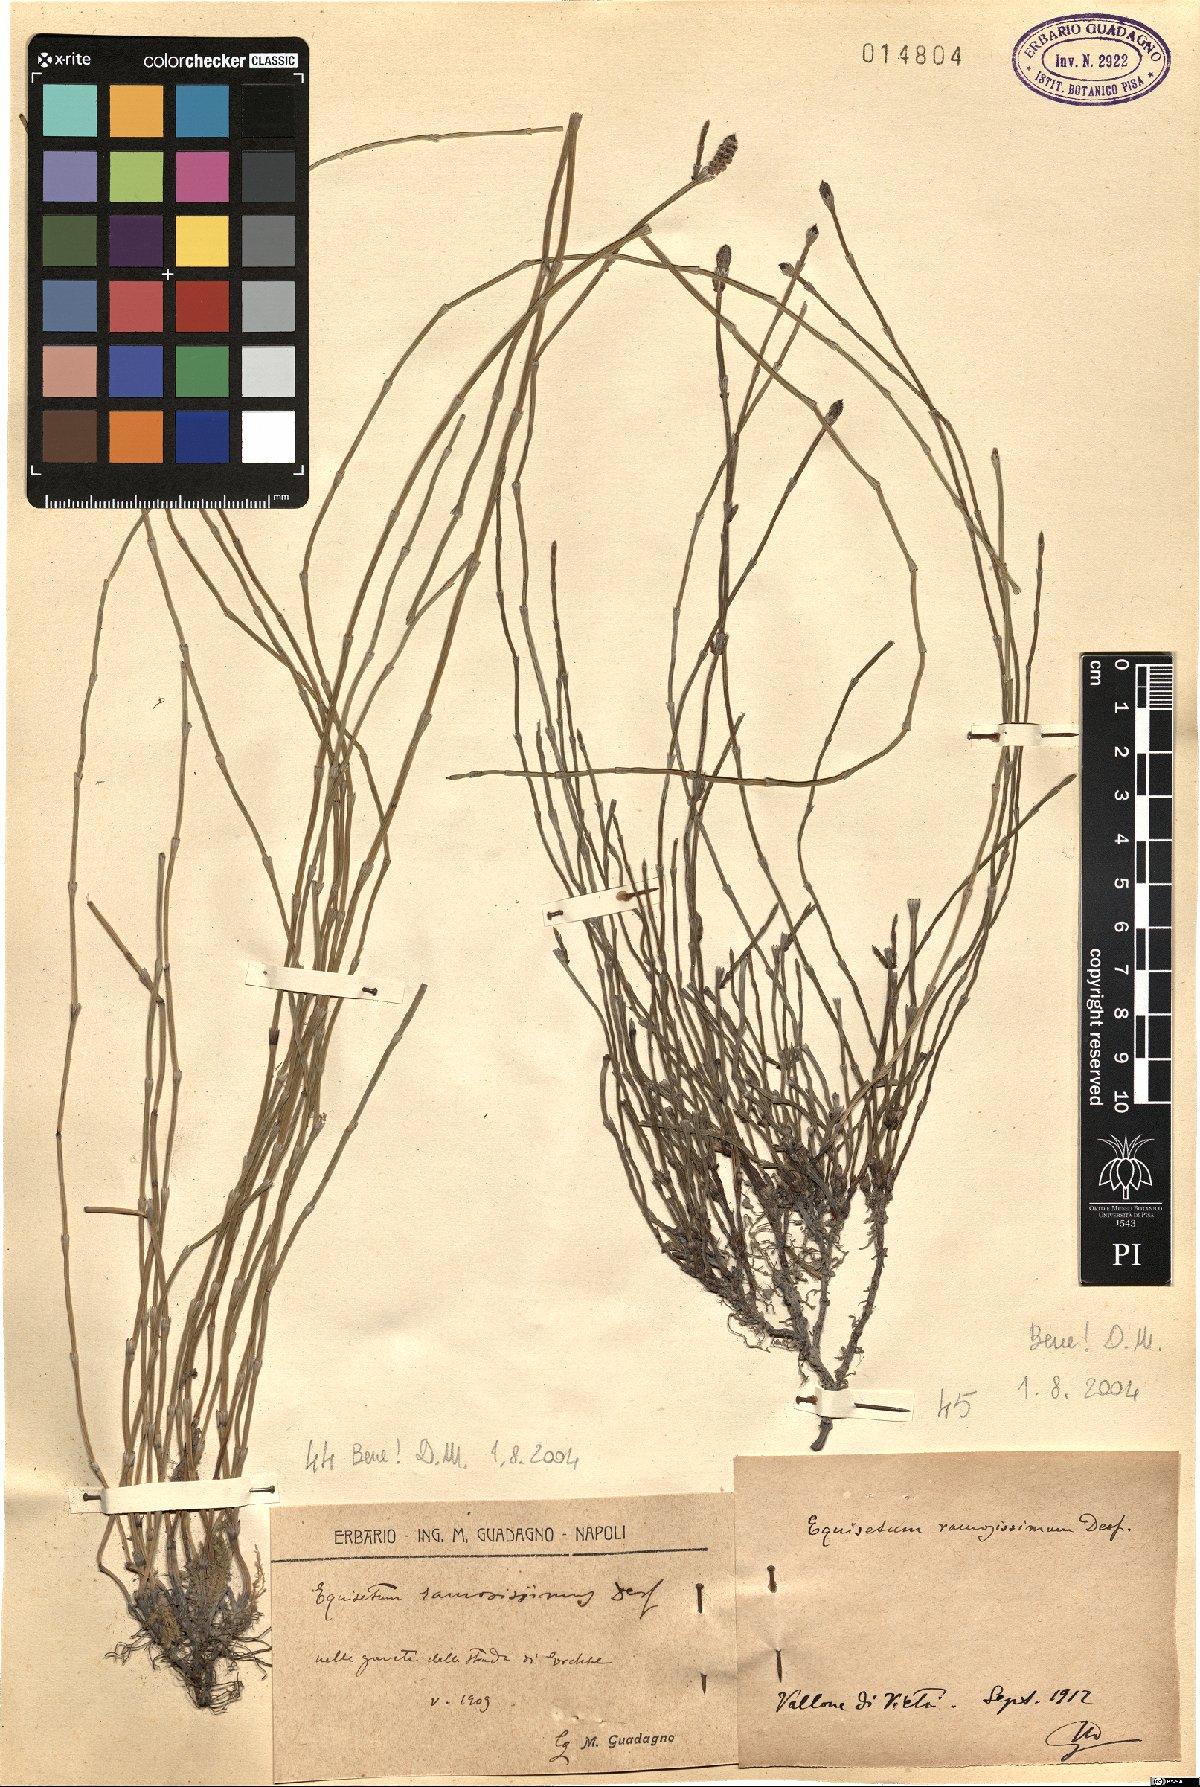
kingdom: Plantae
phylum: Tracheophyta
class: Polypodiopsida
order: Equisetales
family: Equisetaceae
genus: Equisetum
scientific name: Equisetum ramosissimum
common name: Branched horsetail
